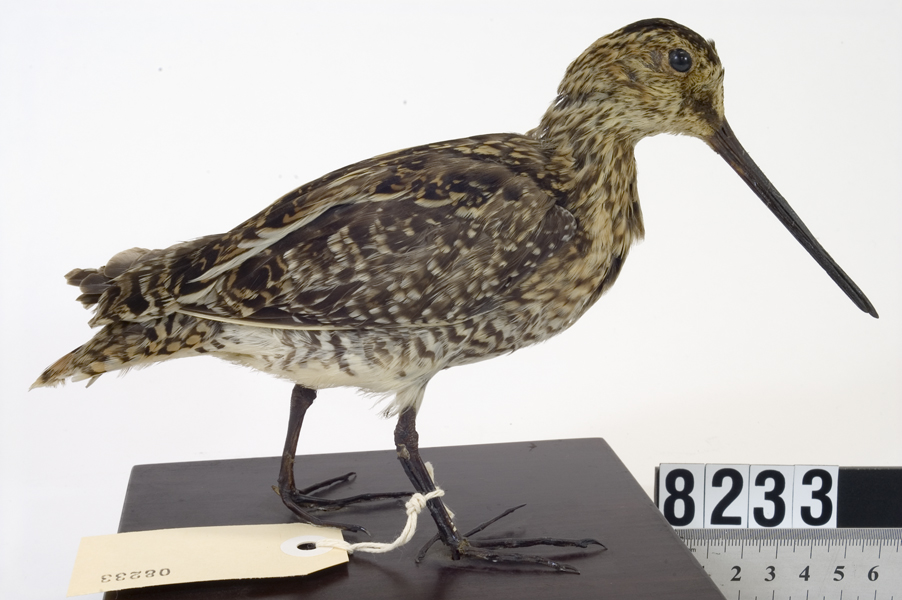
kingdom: Animalia
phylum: Chordata
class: Aves
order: Charadriiformes
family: Scolopacidae
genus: Gallinago
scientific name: Gallinago gallinago
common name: Common snipe
